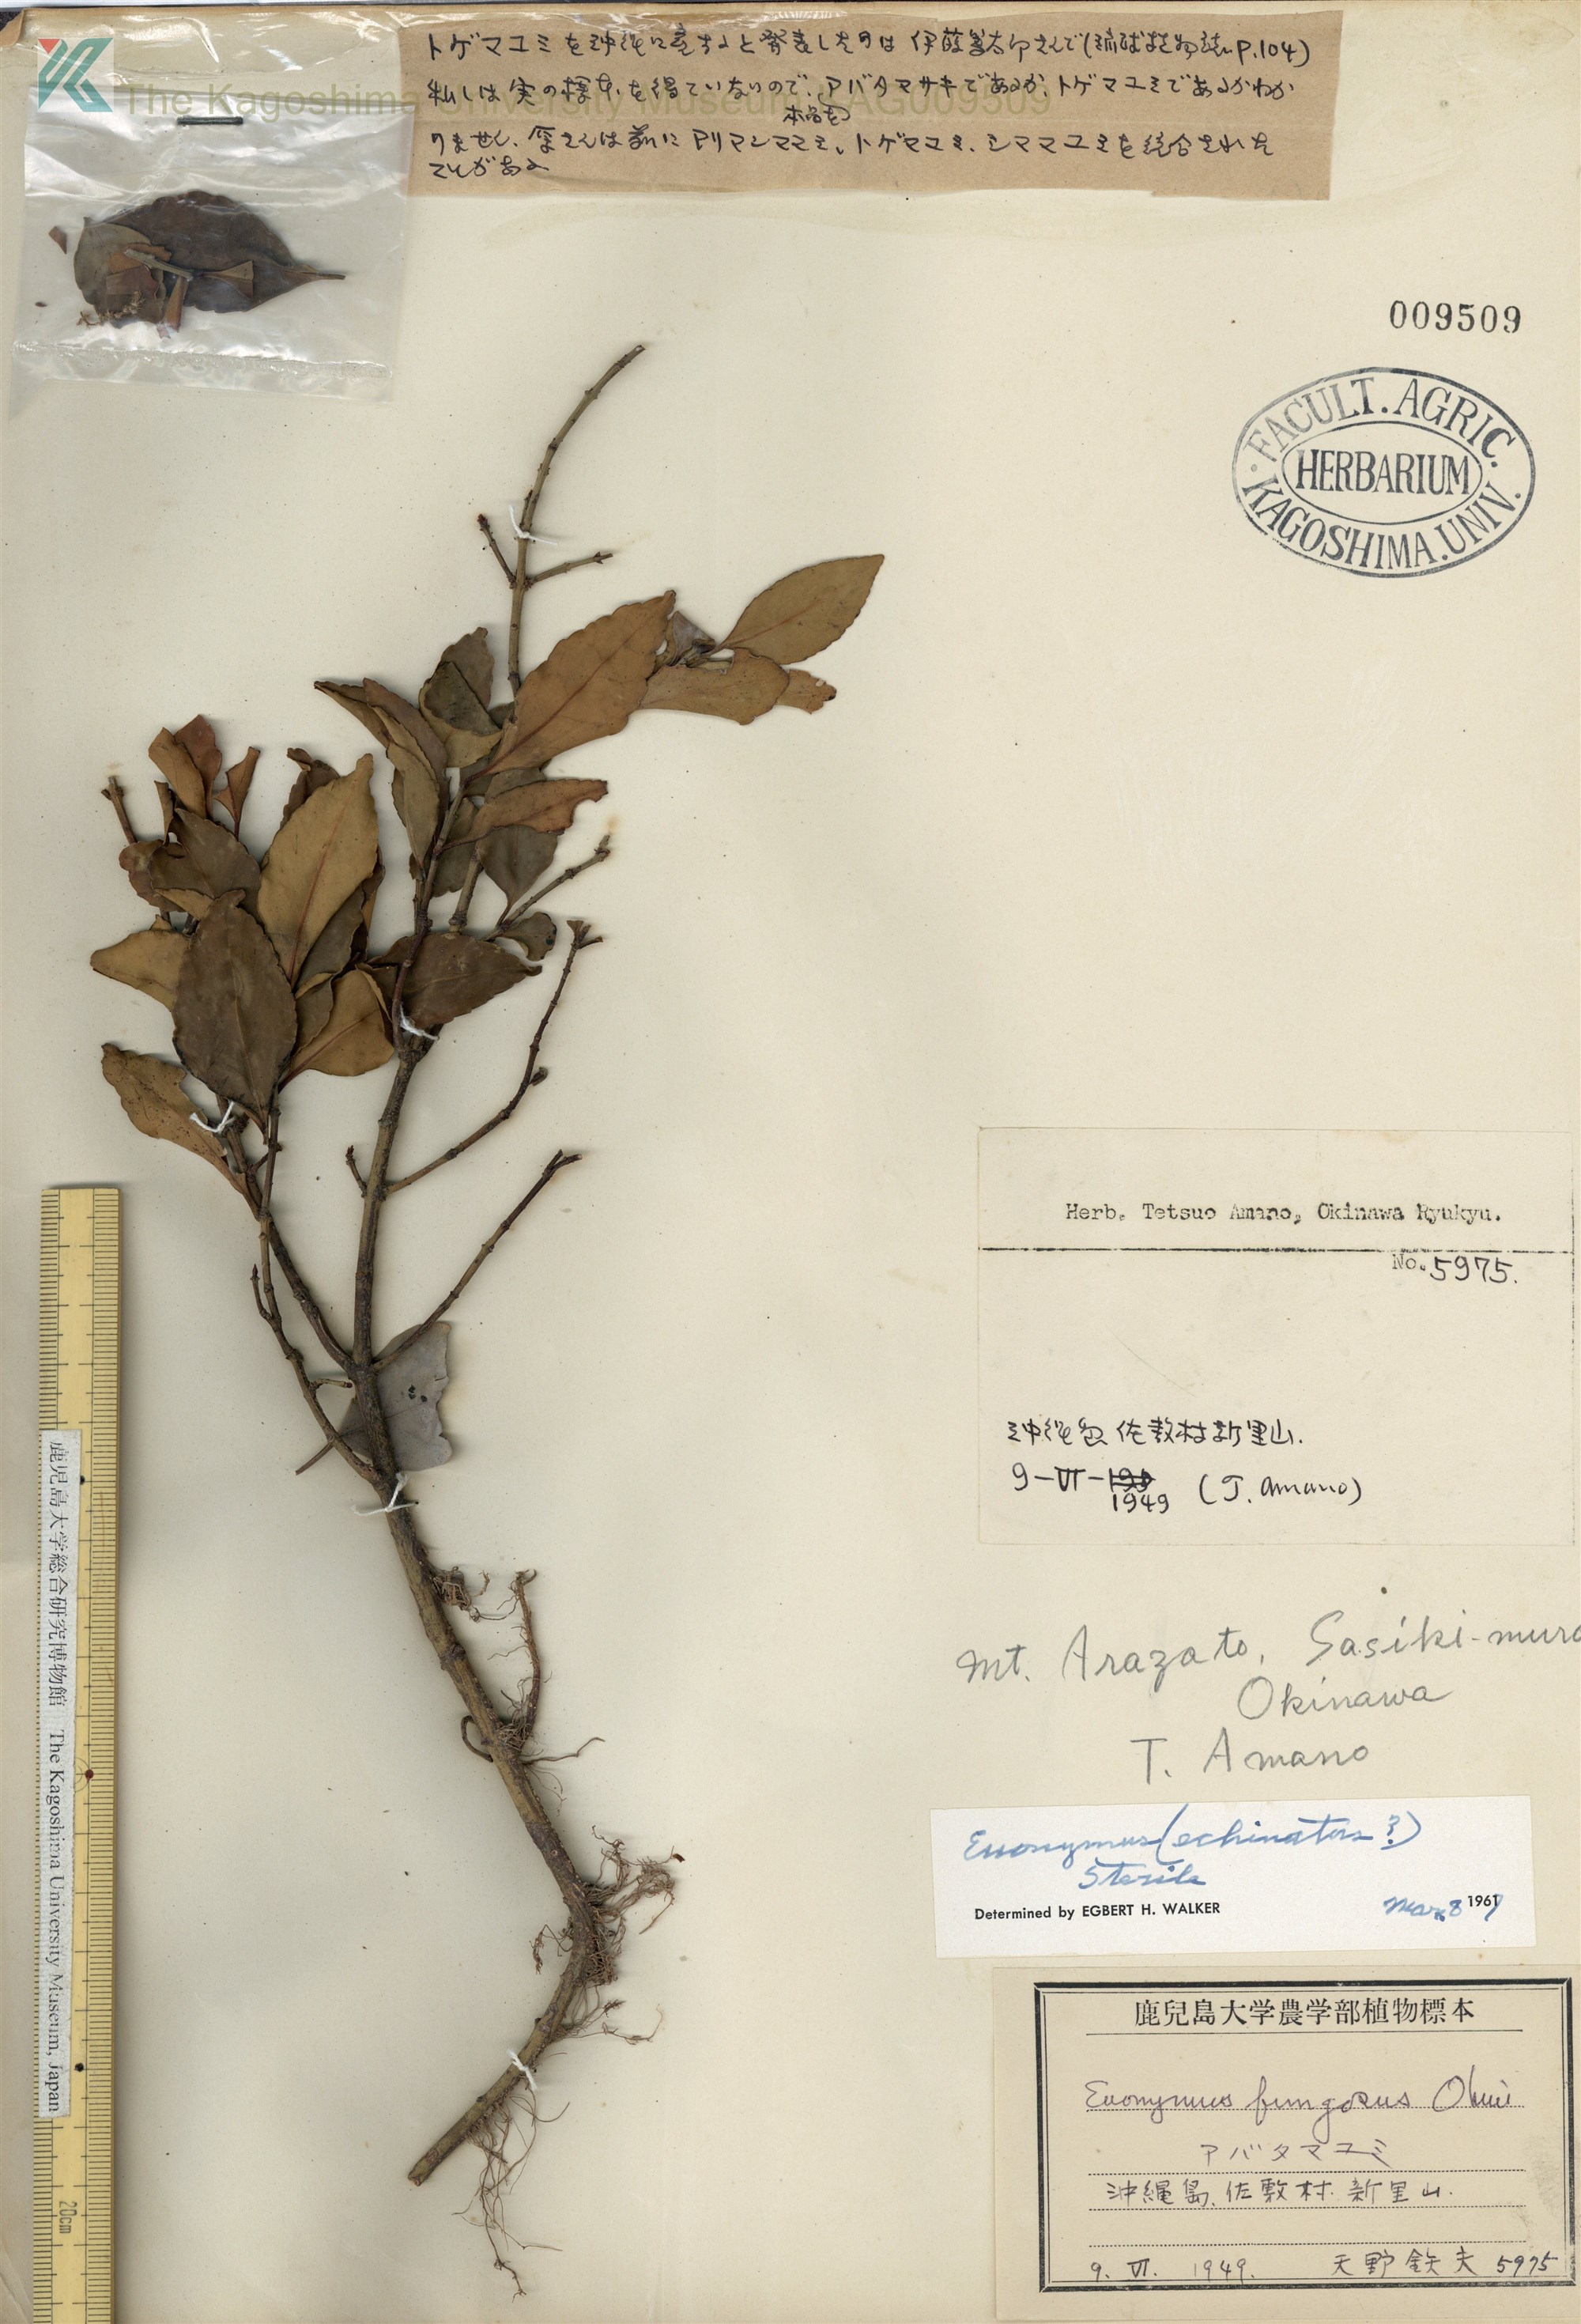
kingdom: Plantae
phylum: Tracheophyta
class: Magnoliopsida
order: Celastrales
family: Celastraceae
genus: Euonymus
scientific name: Euonymus echinatus
